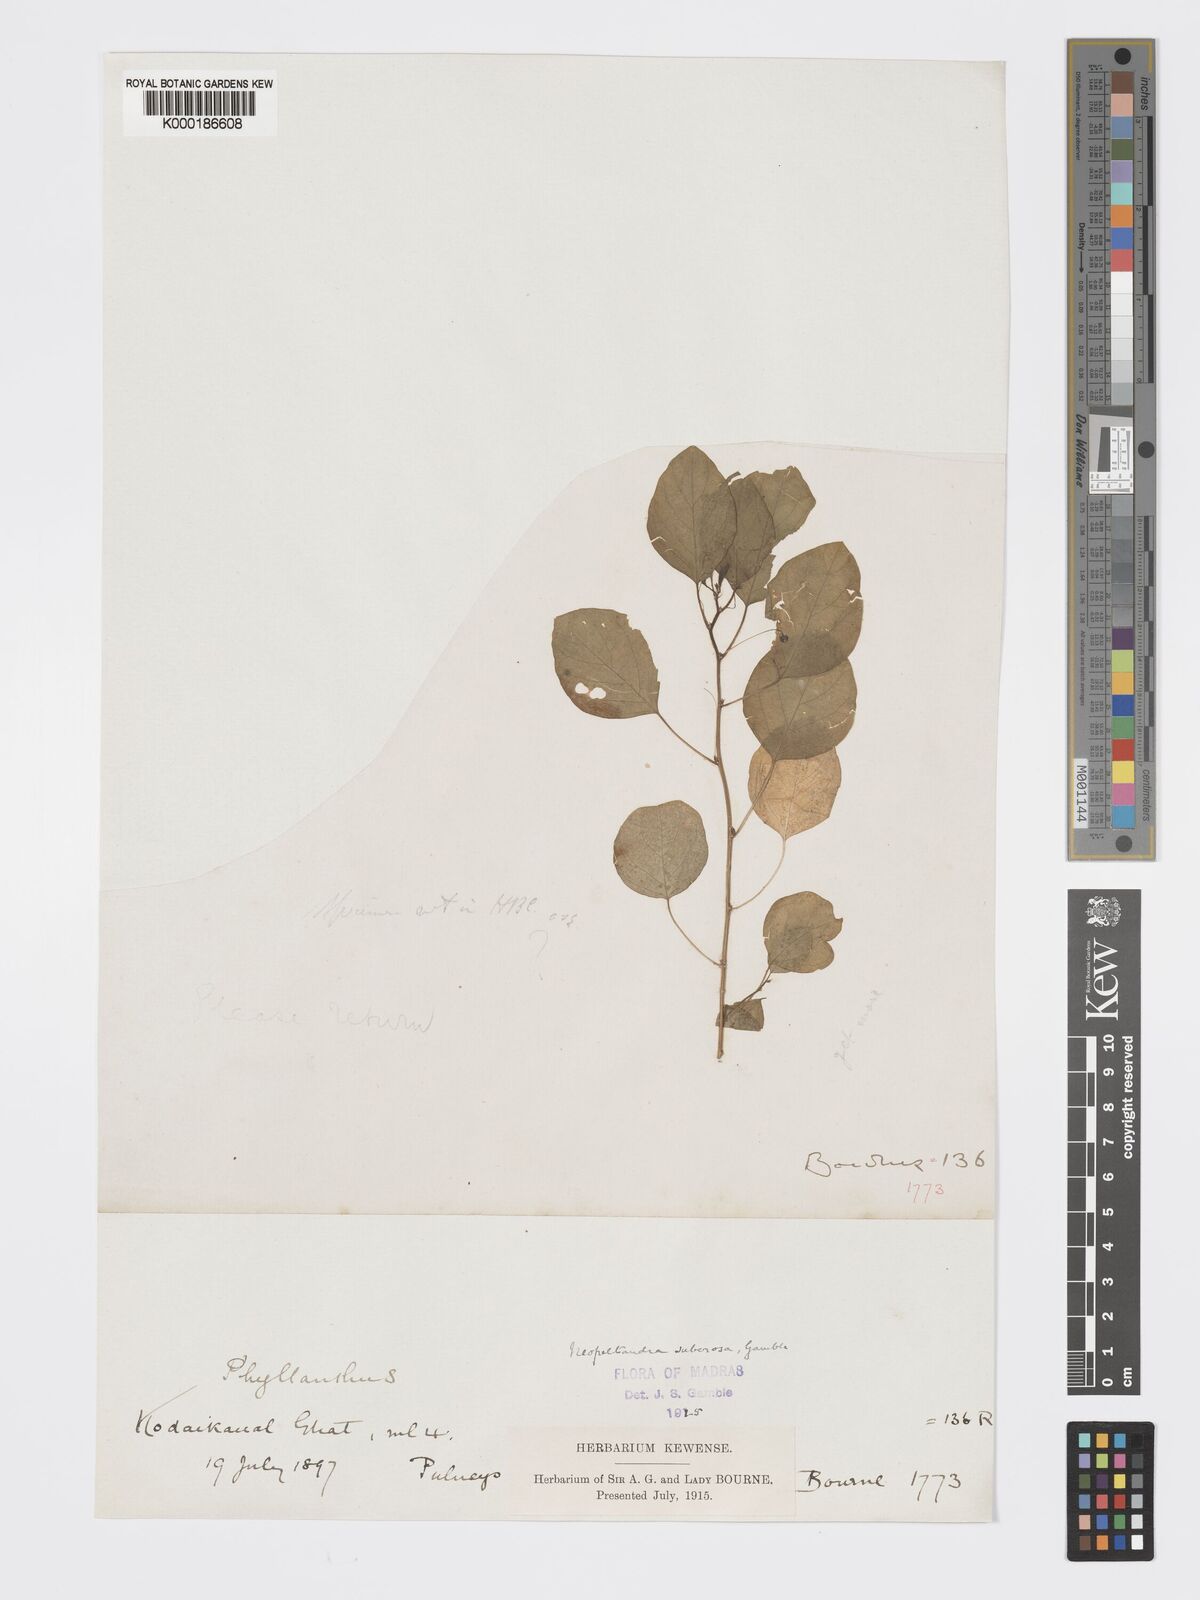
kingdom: Plantae
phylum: Tracheophyta
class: Magnoliopsida
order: Malpighiales
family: Phyllanthaceae
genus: Meineckia
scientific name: Meineckia parvifolia
